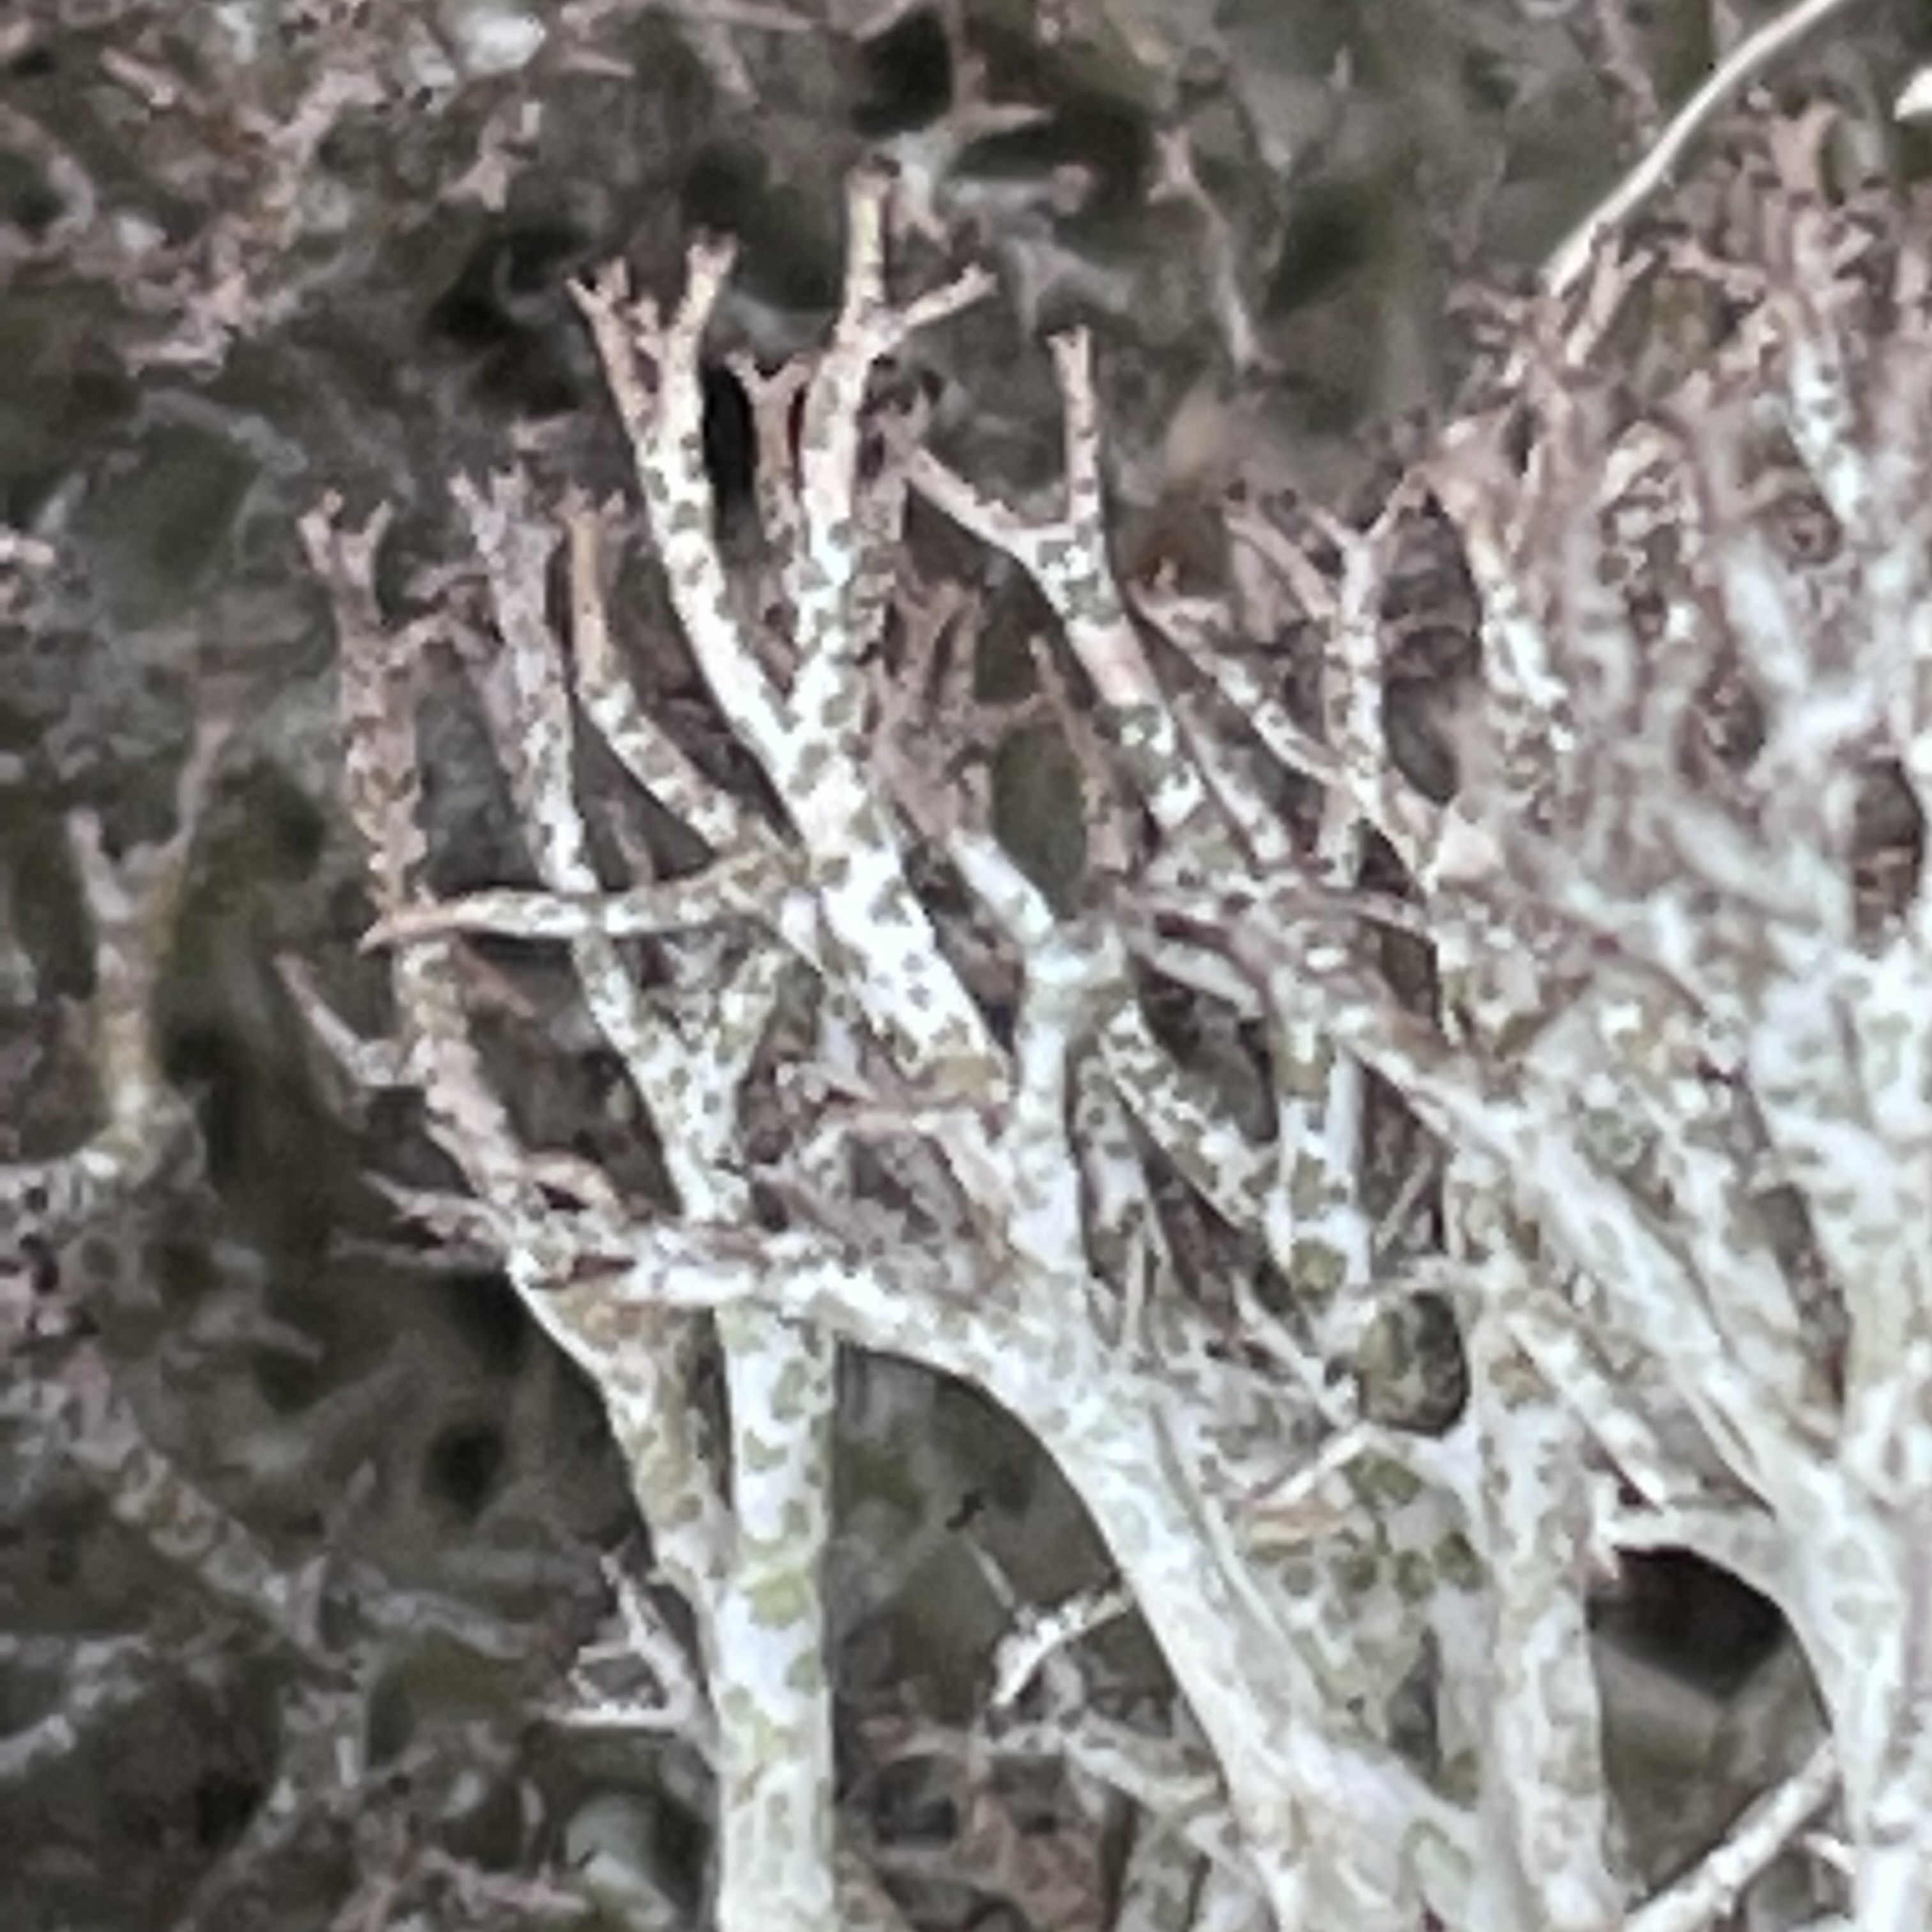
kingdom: Fungi
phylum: Ascomycota
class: Lecanoromycetes
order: Lecanorales
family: Cladoniaceae
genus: Cladonia
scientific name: Cladonia rangiformis
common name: spættet bægerlav
